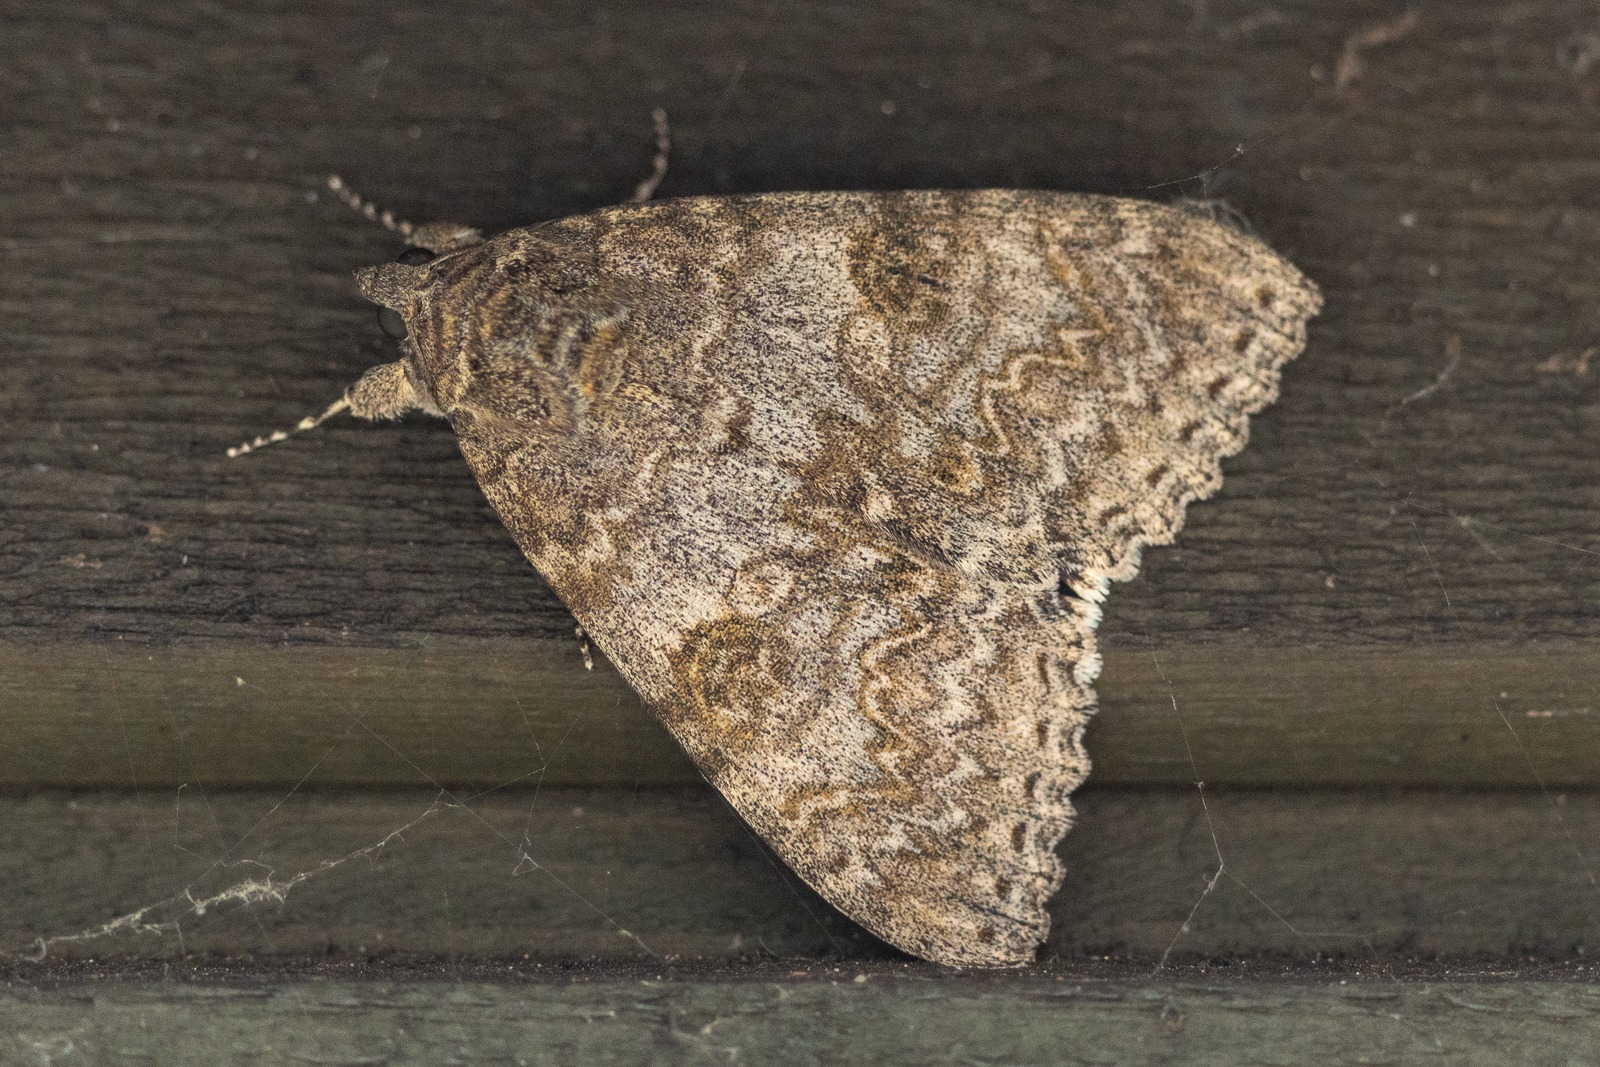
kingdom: Animalia
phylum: Arthropoda
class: Insecta
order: Lepidoptera
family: Erebidae
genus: Catocala
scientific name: Catocala nupta
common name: Rødt ordensbånd
